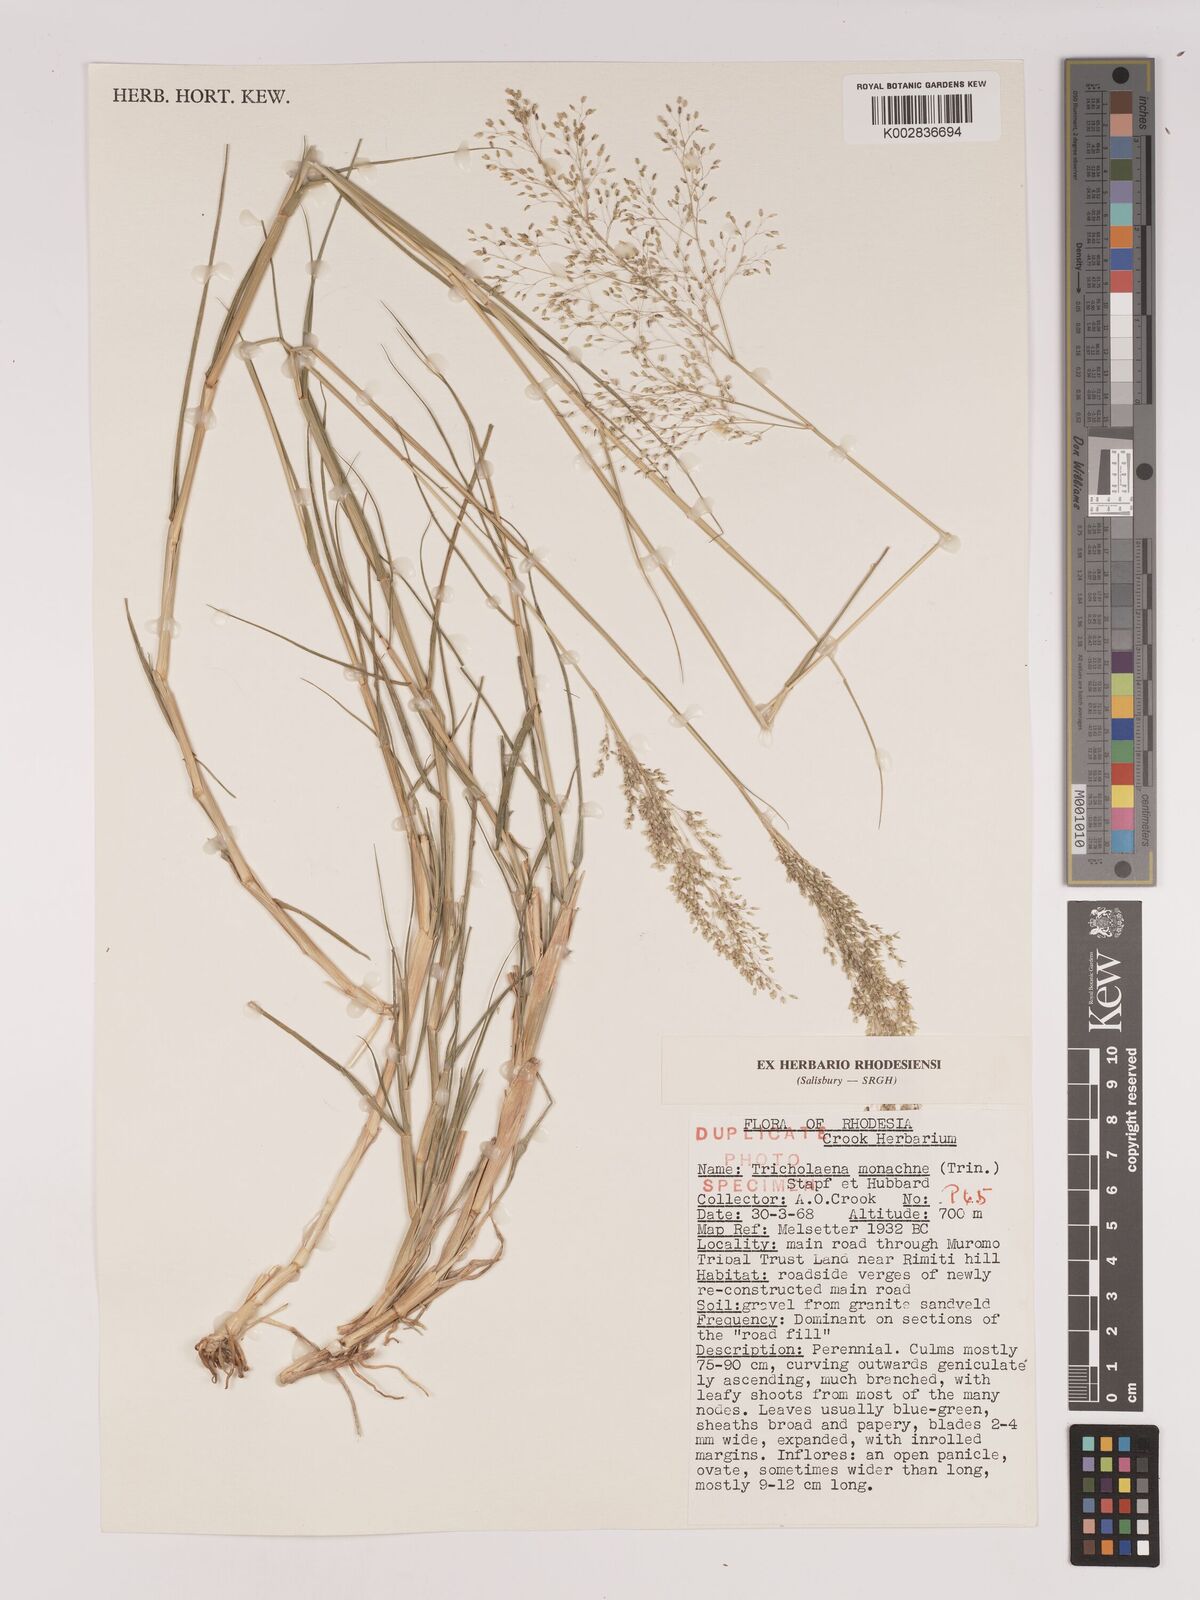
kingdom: Plantae
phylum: Tracheophyta
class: Liliopsida
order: Poales
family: Poaceae
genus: Tricholaena
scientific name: Tricholaena monachne
